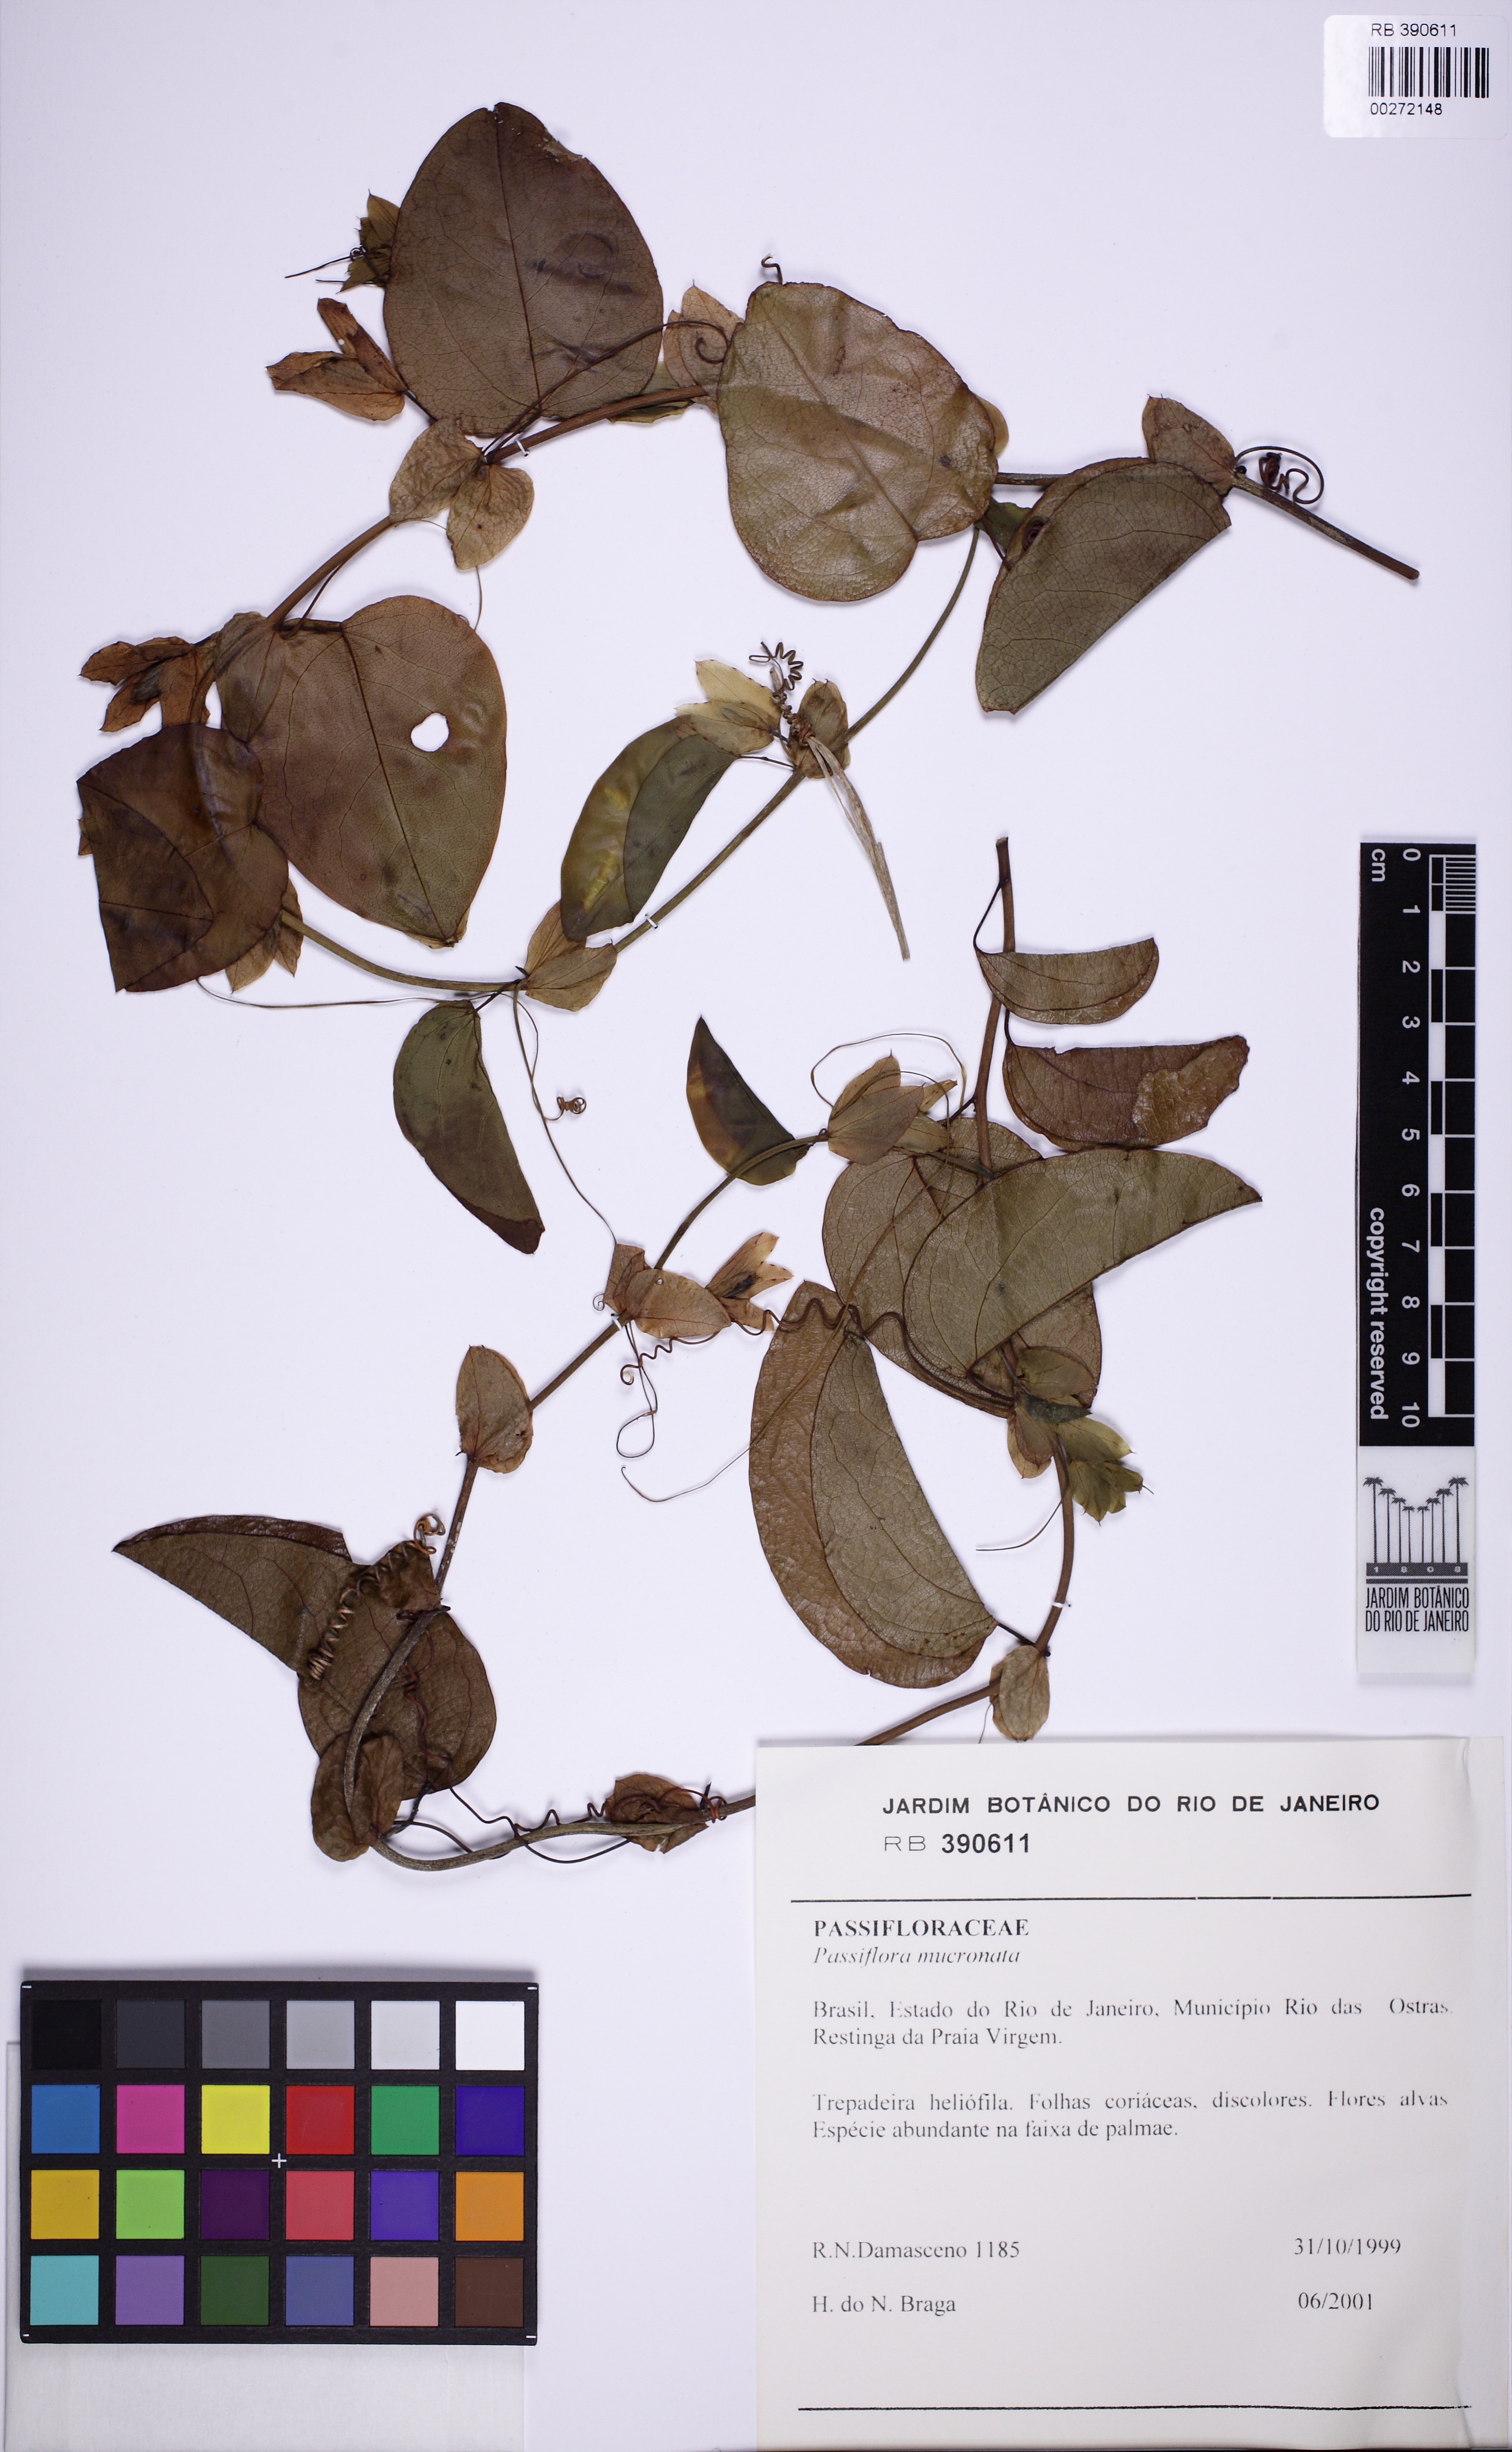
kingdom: Plantae
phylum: Tracheophyta
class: Magnoliopsida
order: Malpighiales
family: Passifloraceae
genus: Passiflora
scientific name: Passiflora mucronata
